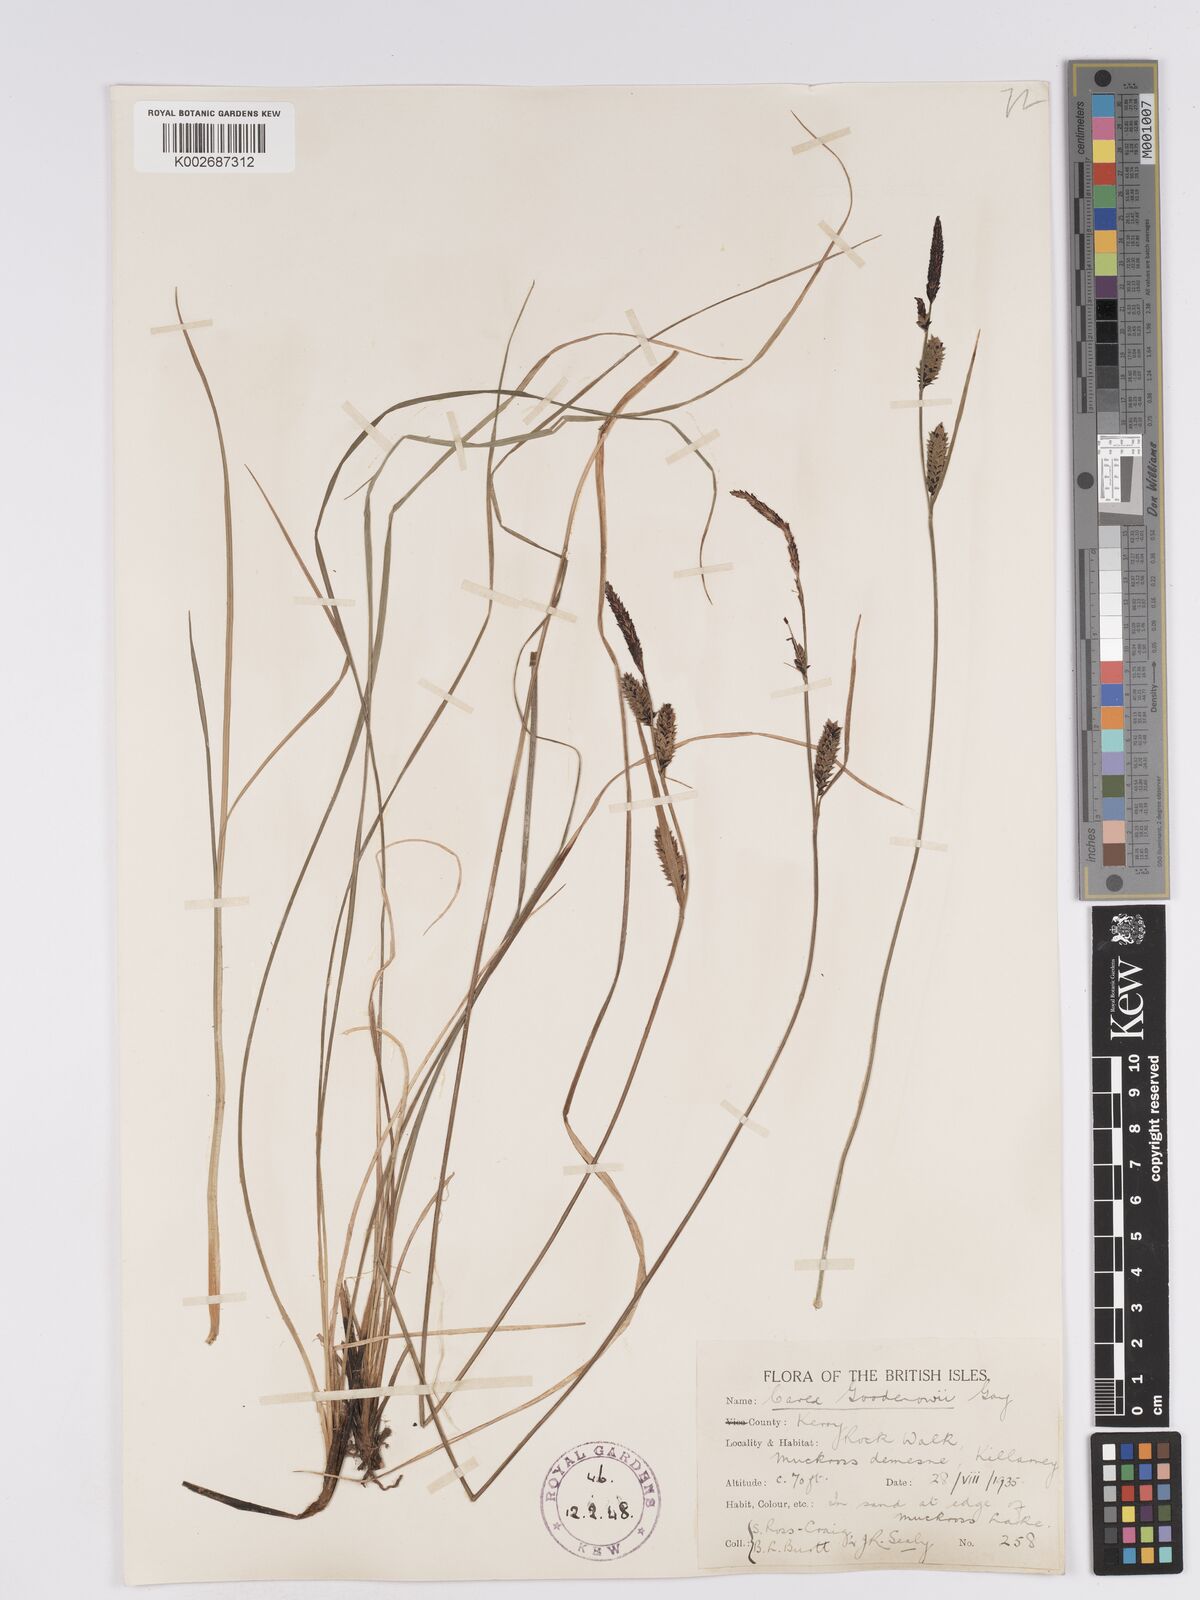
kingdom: Plantae
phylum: Tracheophyta
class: Liliopsida
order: Poales
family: Cyperaceae
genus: Carex
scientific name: Carex nigra
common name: Common sedge
